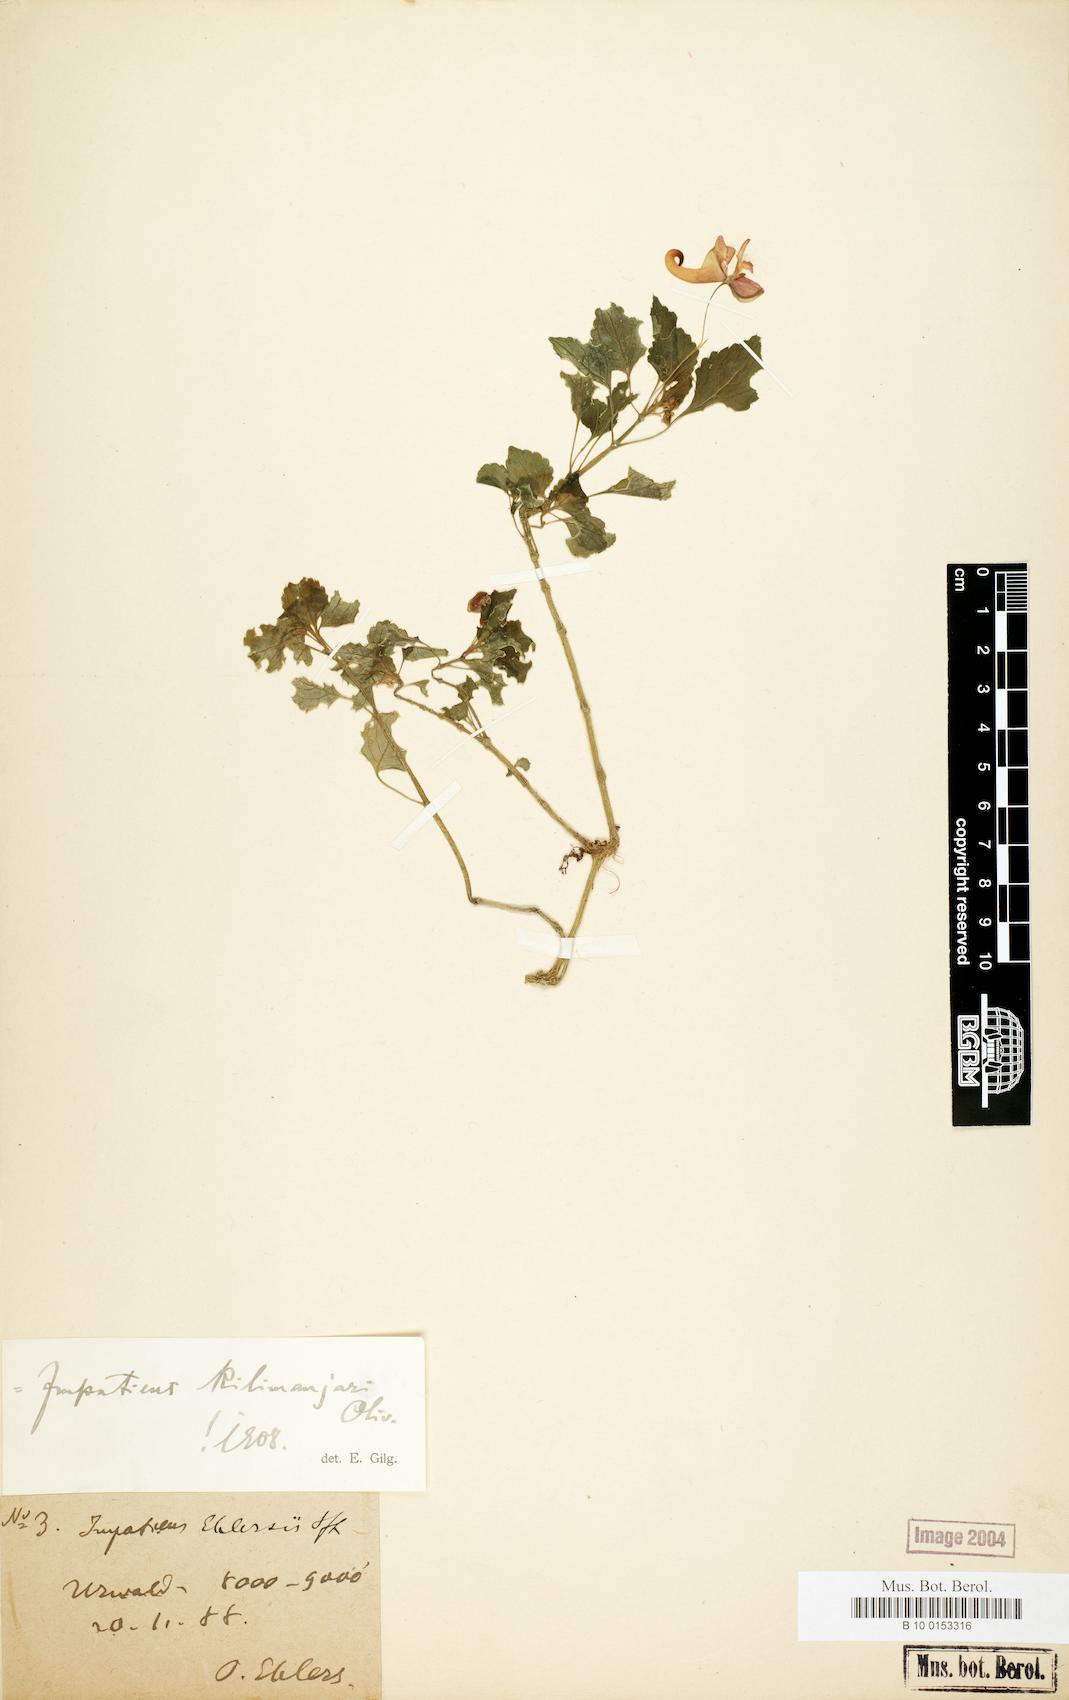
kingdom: Plantae
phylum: Tracheophyta
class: Magnoliopsida
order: Ericales
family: Balsaminaceae
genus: Impatiens
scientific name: Impatiens kilimanjari
